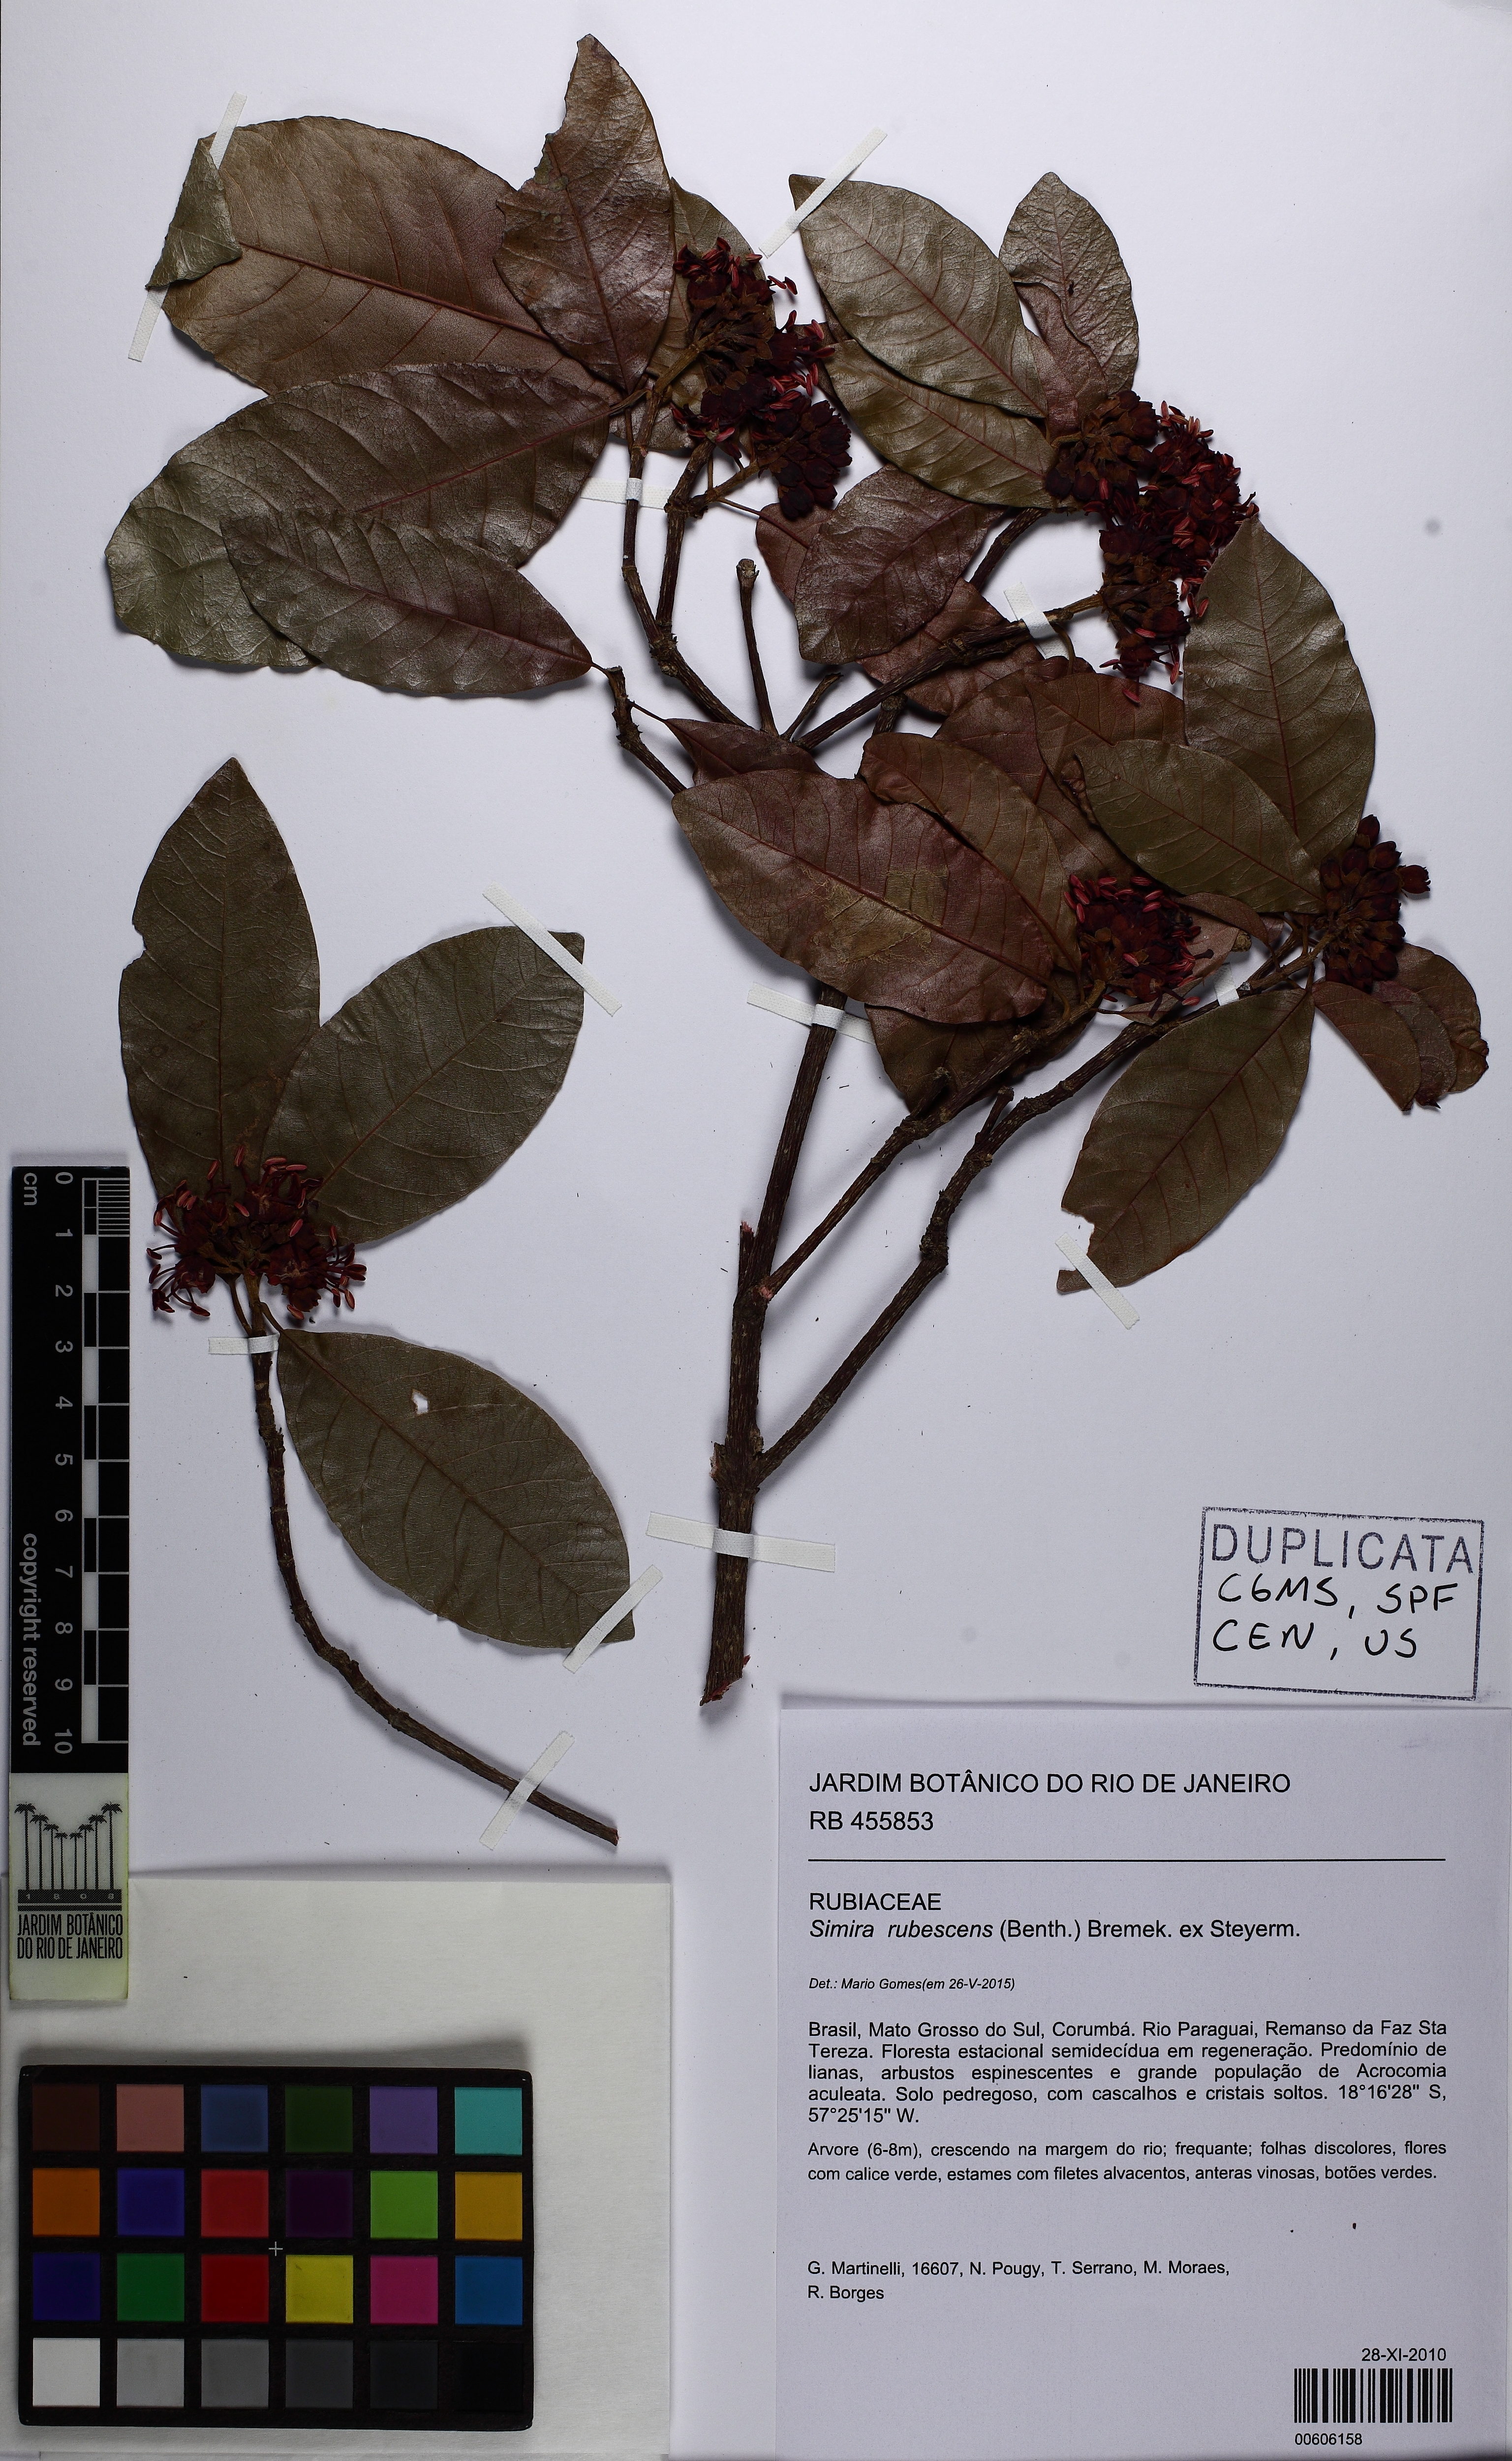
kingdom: Plantae
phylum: Tracheophyta
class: Magnoliopsida
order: Gentianales
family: Rubiaceae
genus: Simira
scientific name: Simira rubescens
